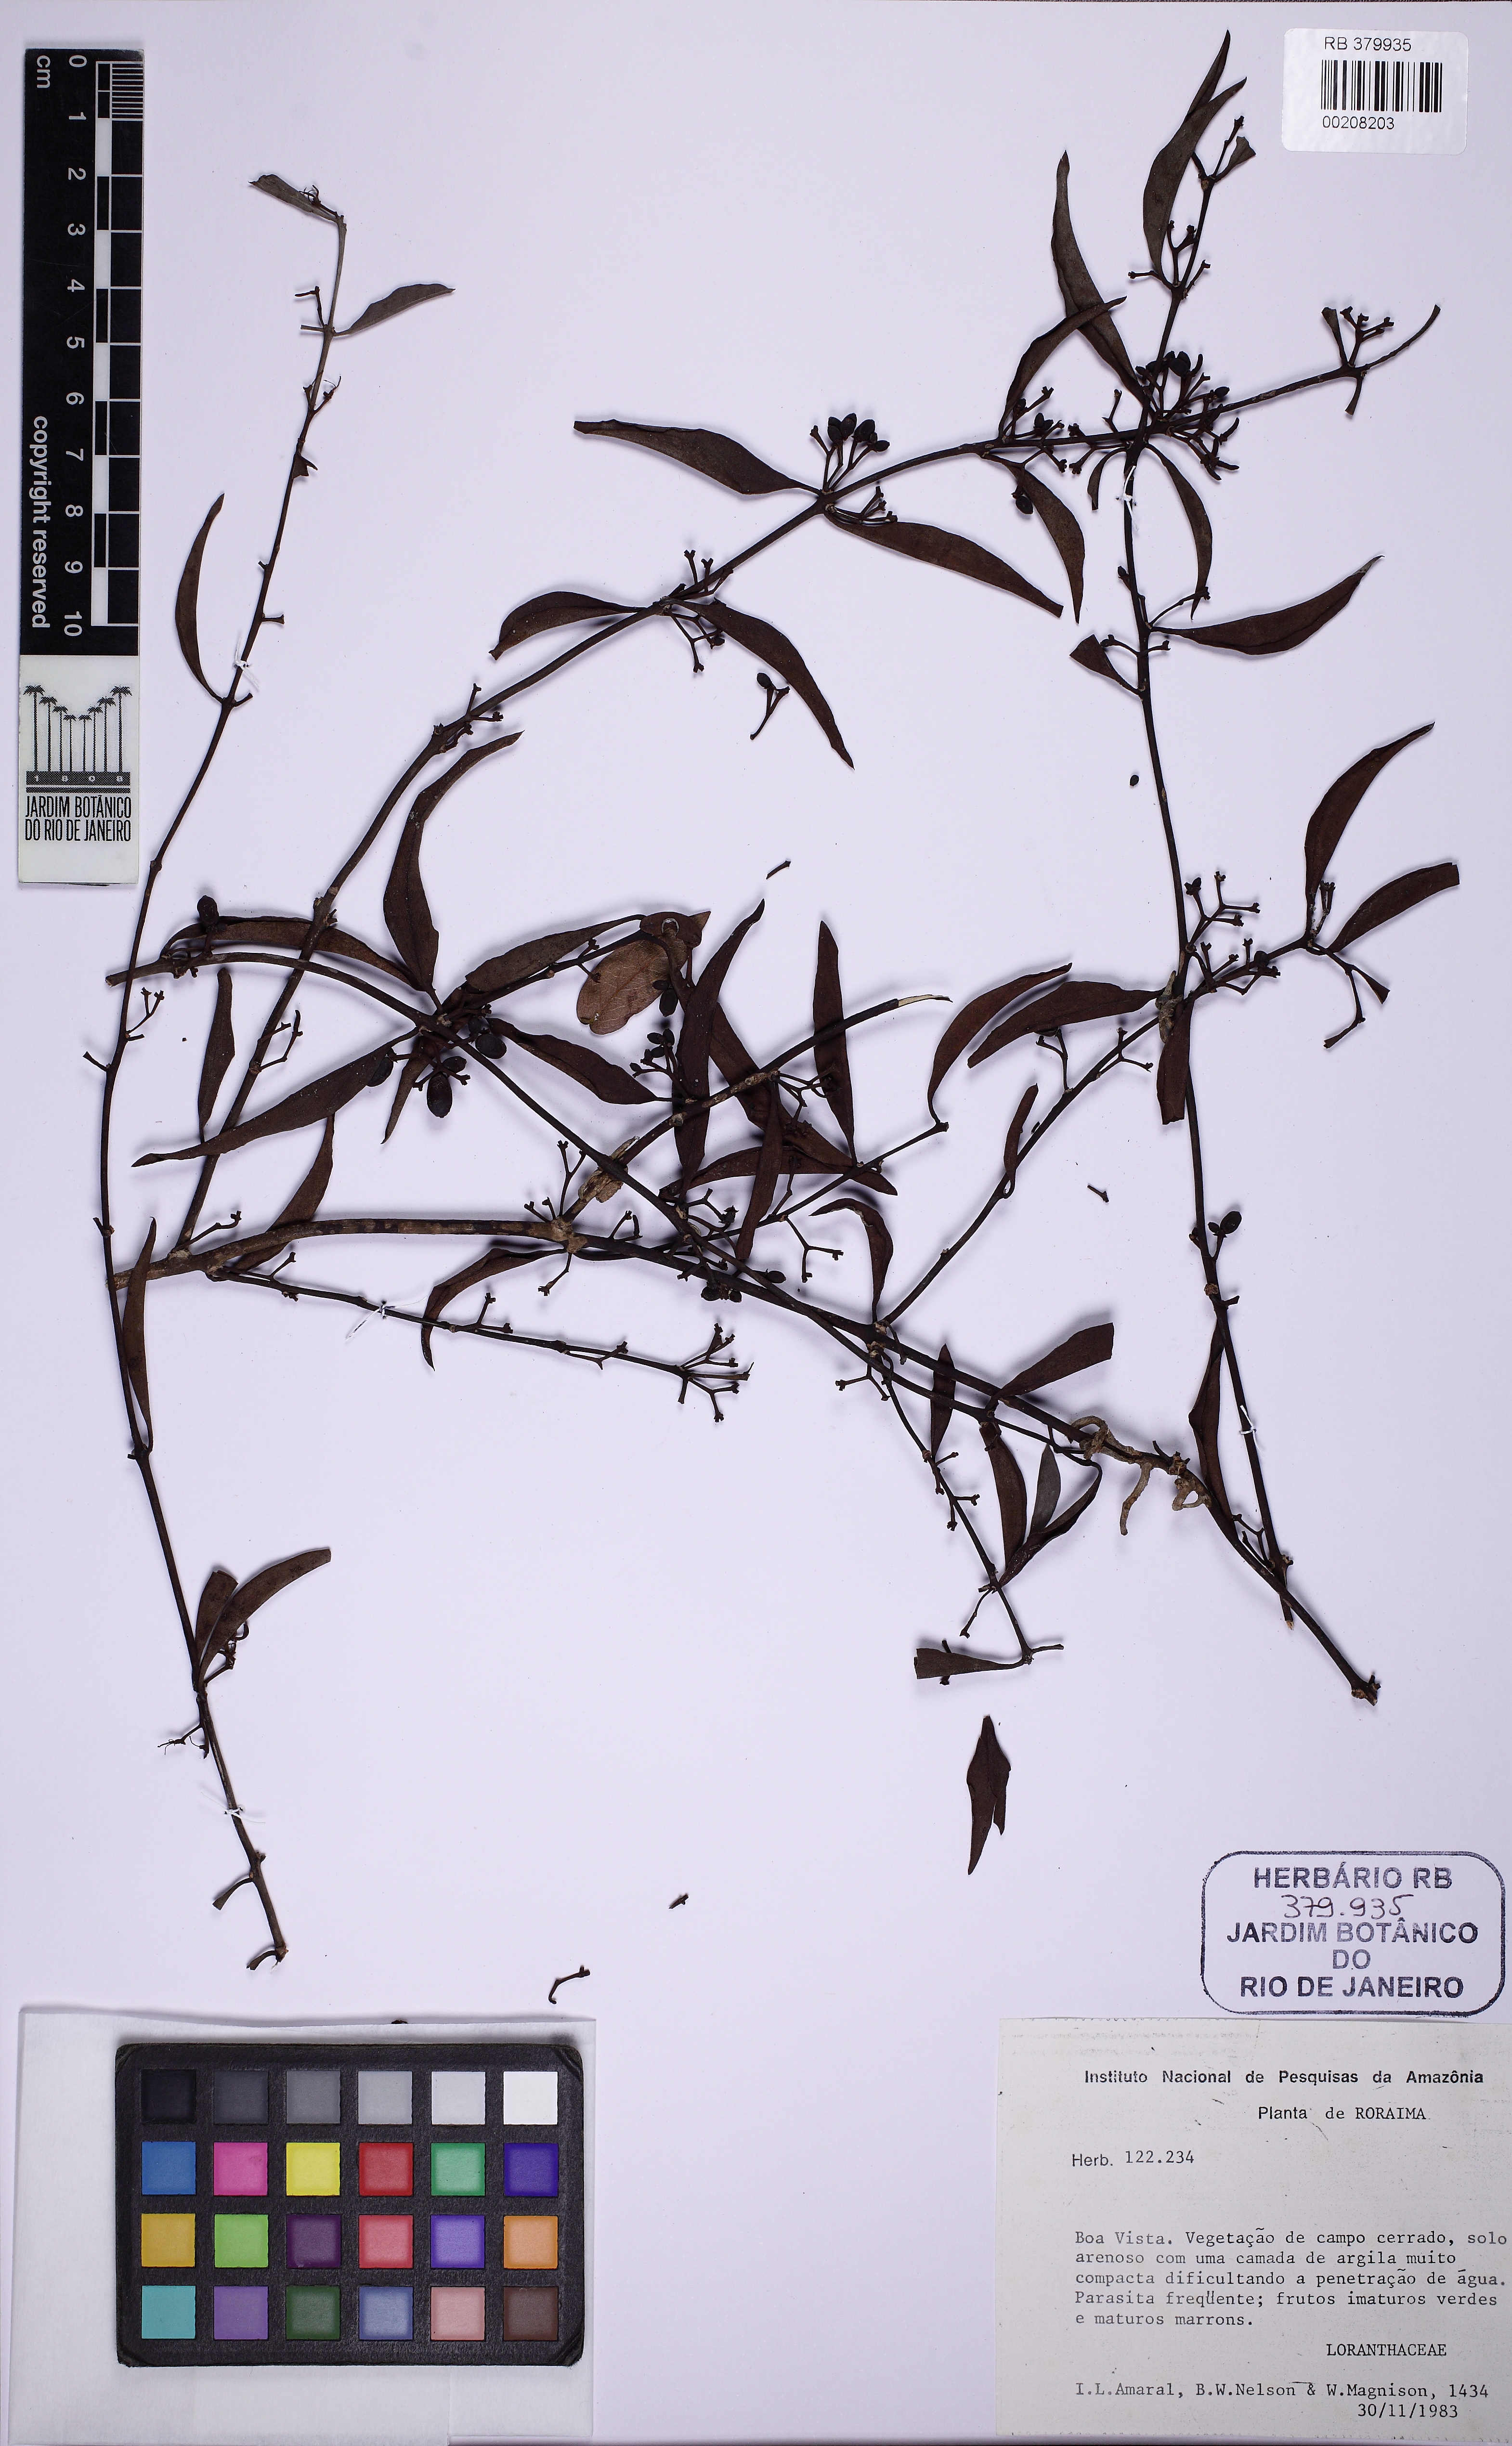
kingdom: Plantae
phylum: Tracheophyta
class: Magnoliopsida
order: Santalales
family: Loranthaceae
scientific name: Loranthaceae
